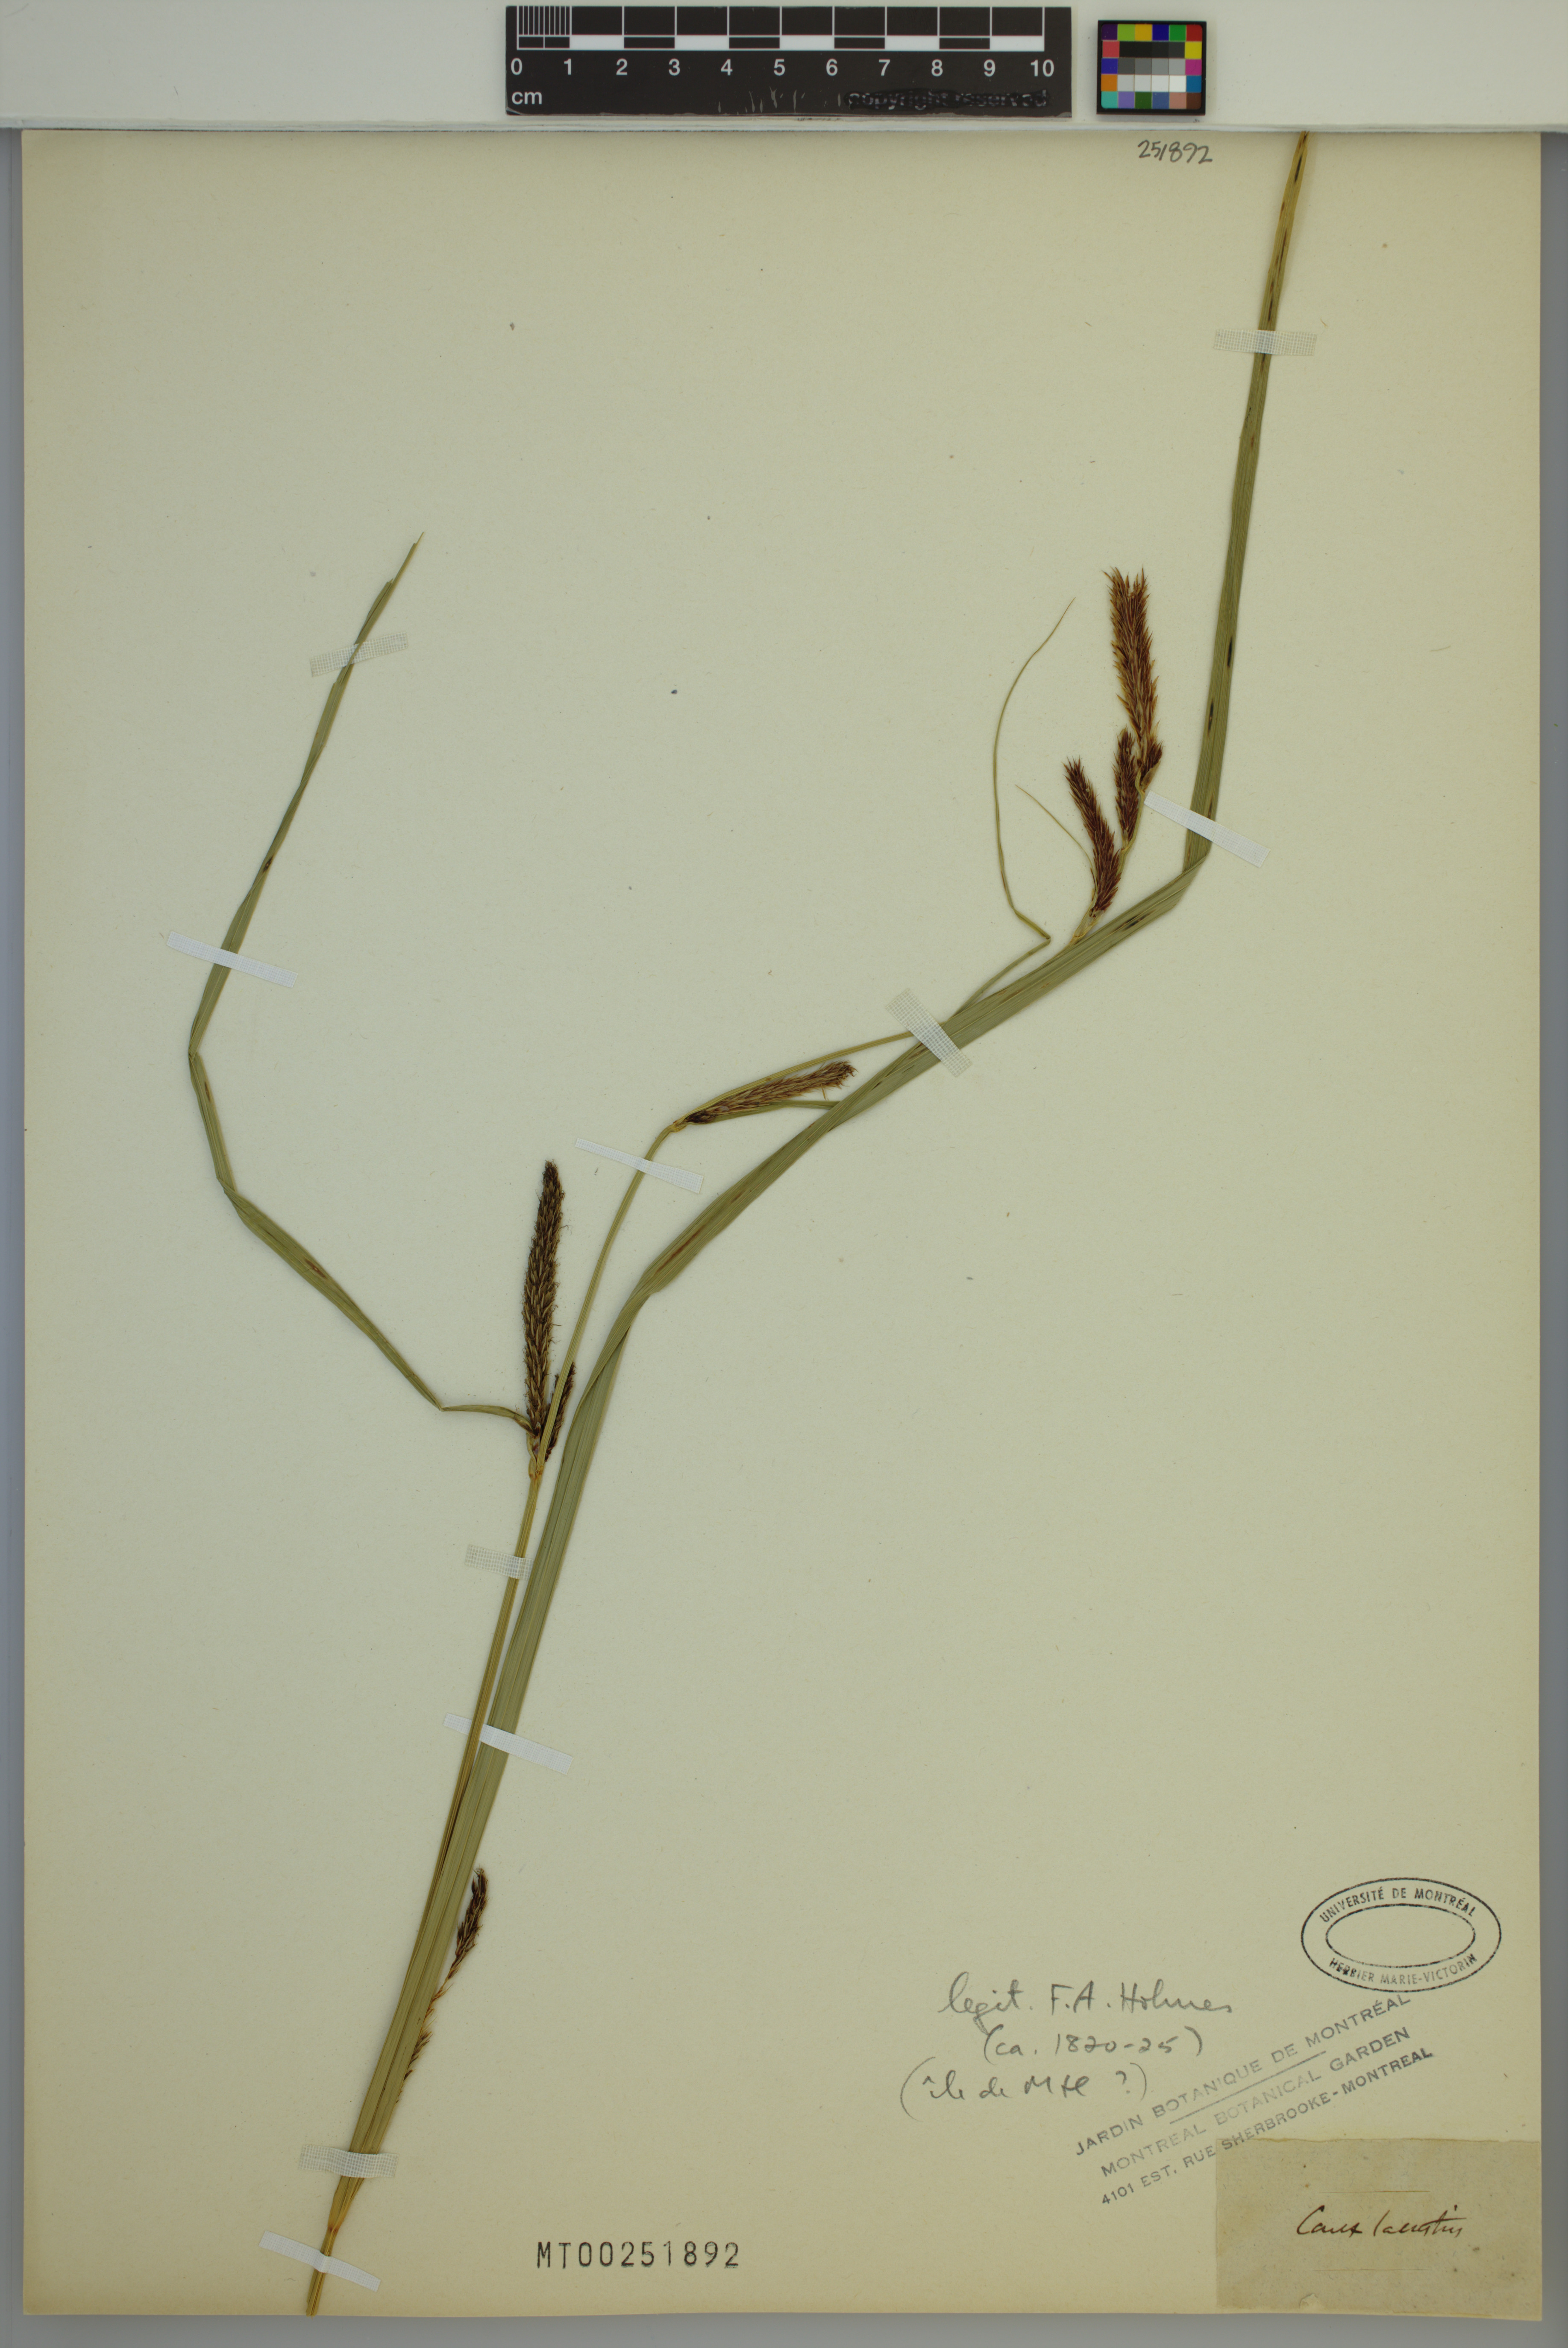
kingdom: Plantae
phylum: Tracheophyta
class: Liliopsida
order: Poales
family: Cyperaceae
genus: Carex
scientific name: Carex lacustris
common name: Common lake sedge
